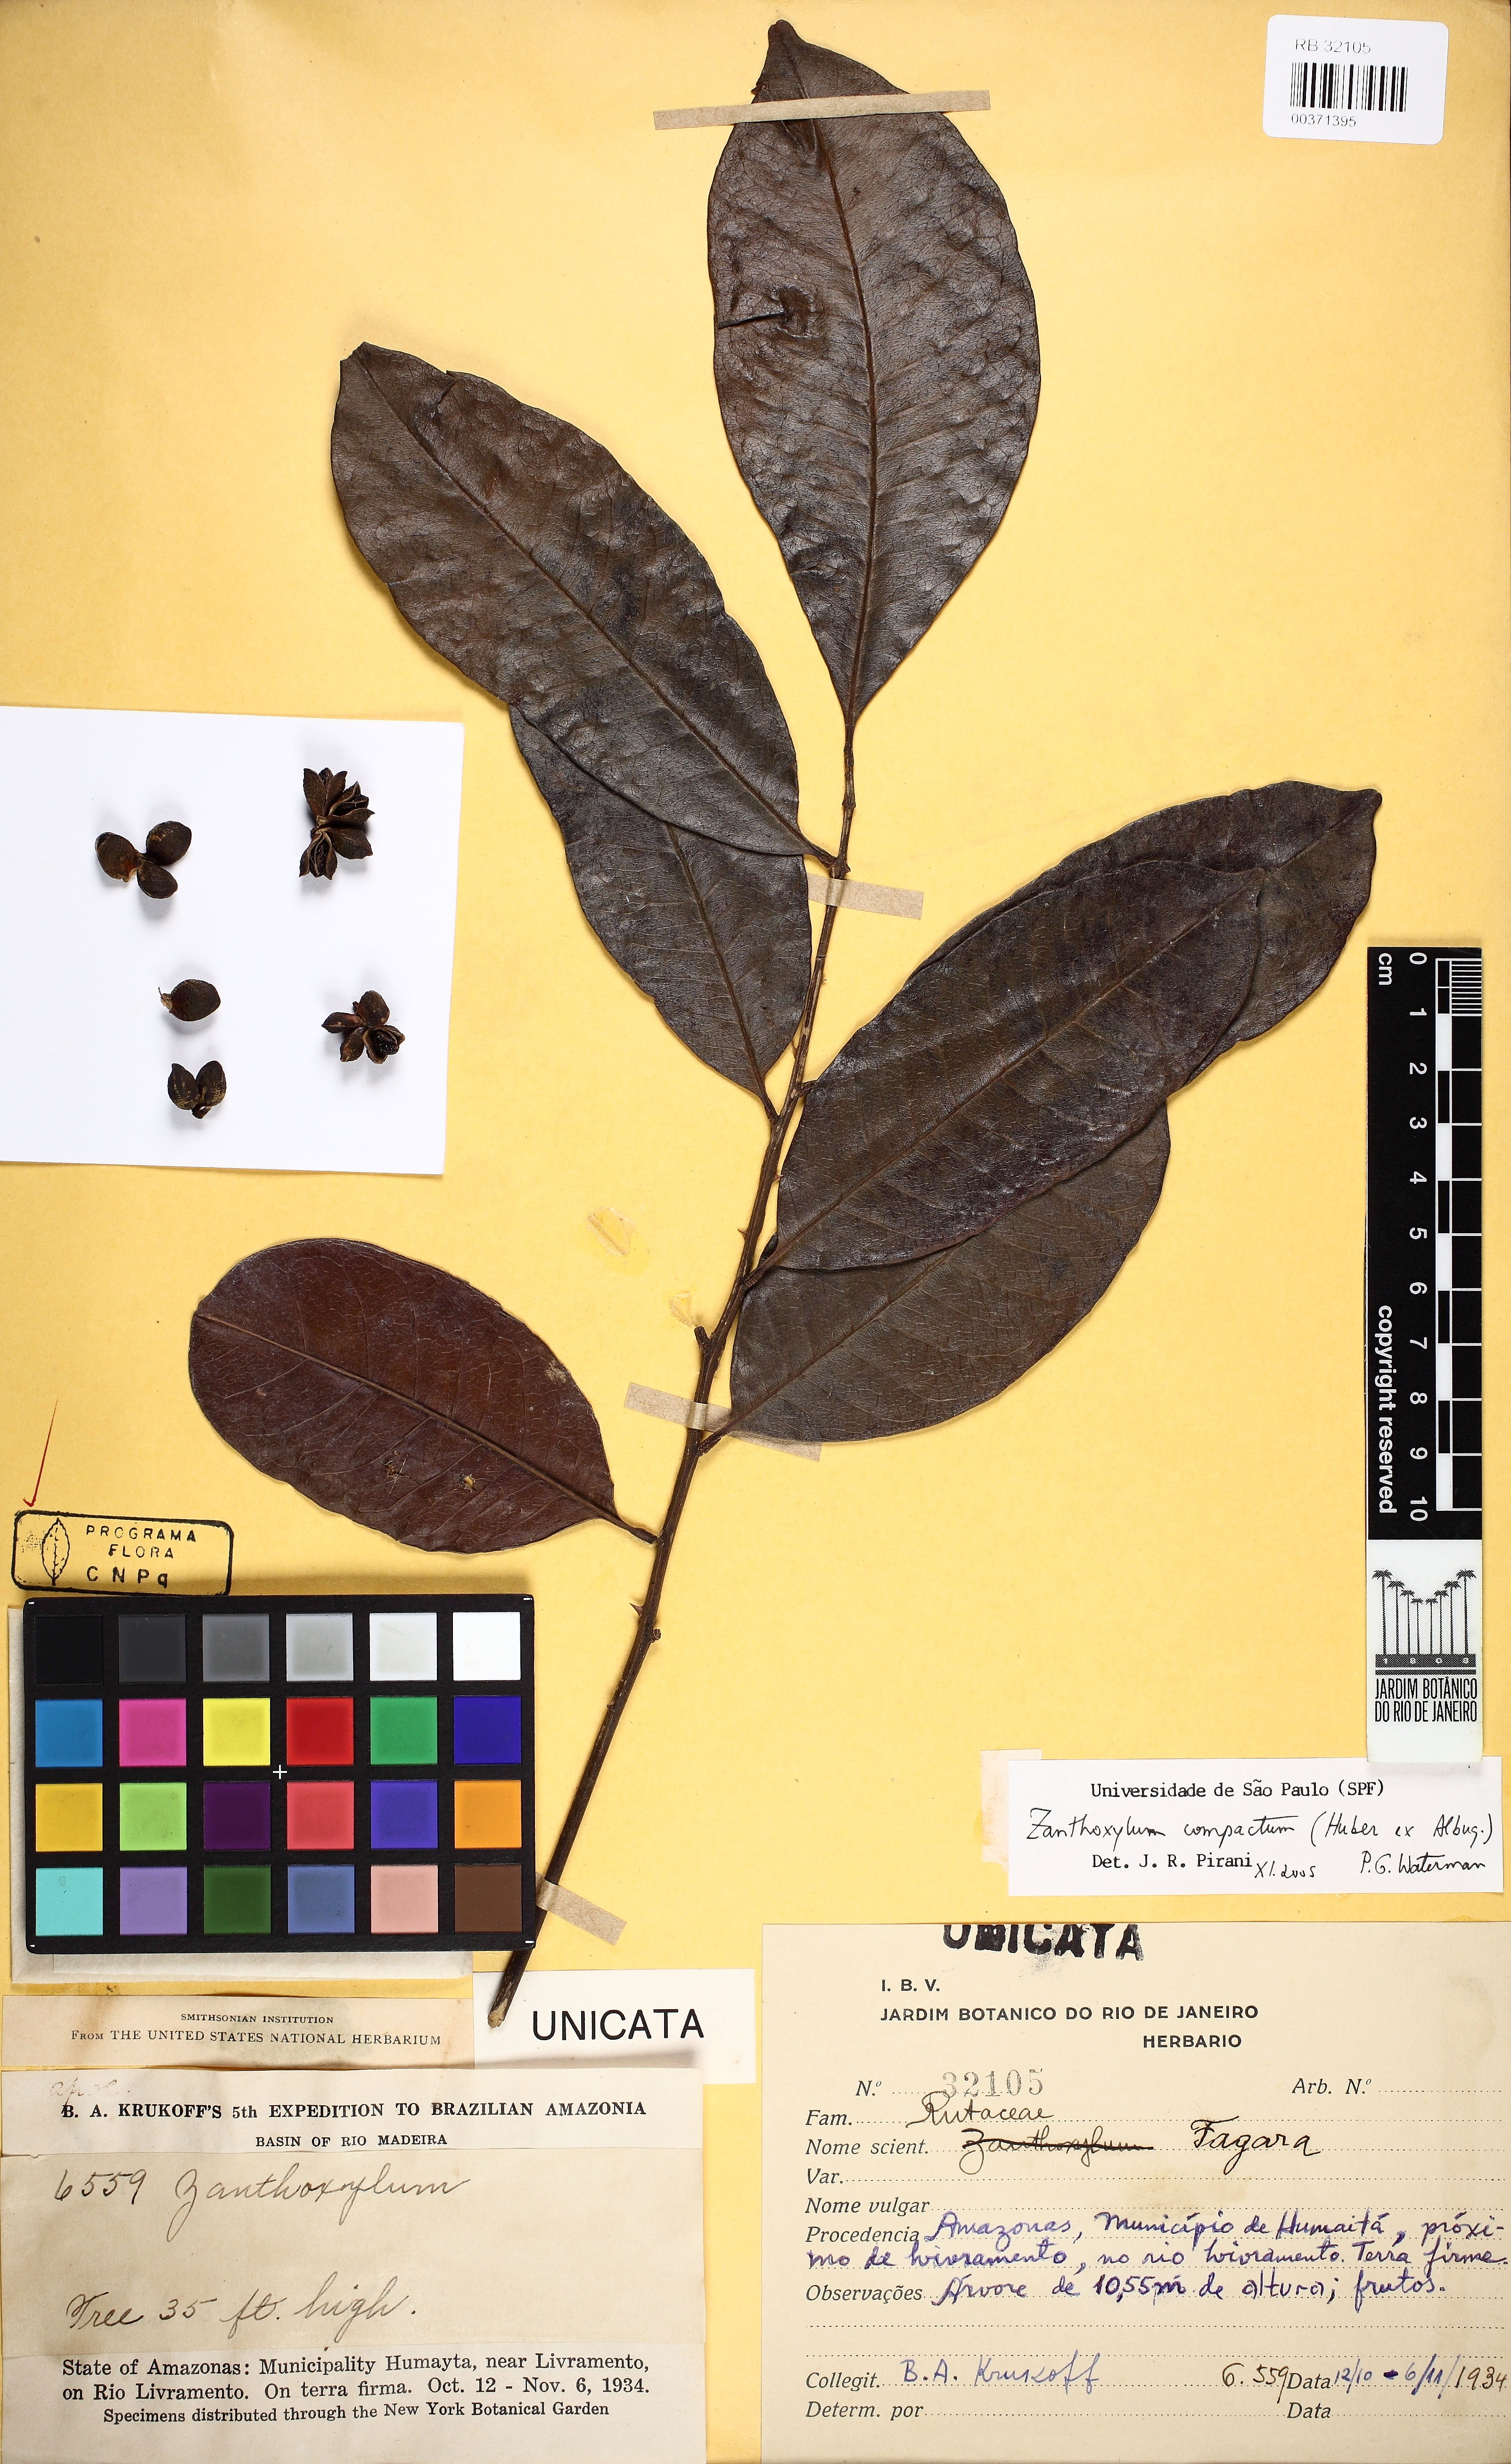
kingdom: Plantae
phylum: Tracheophyta
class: Magnoliopsida
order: Sapindales
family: Rutaceae
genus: Zanthoxylum
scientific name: Zanthoxylum compactum
